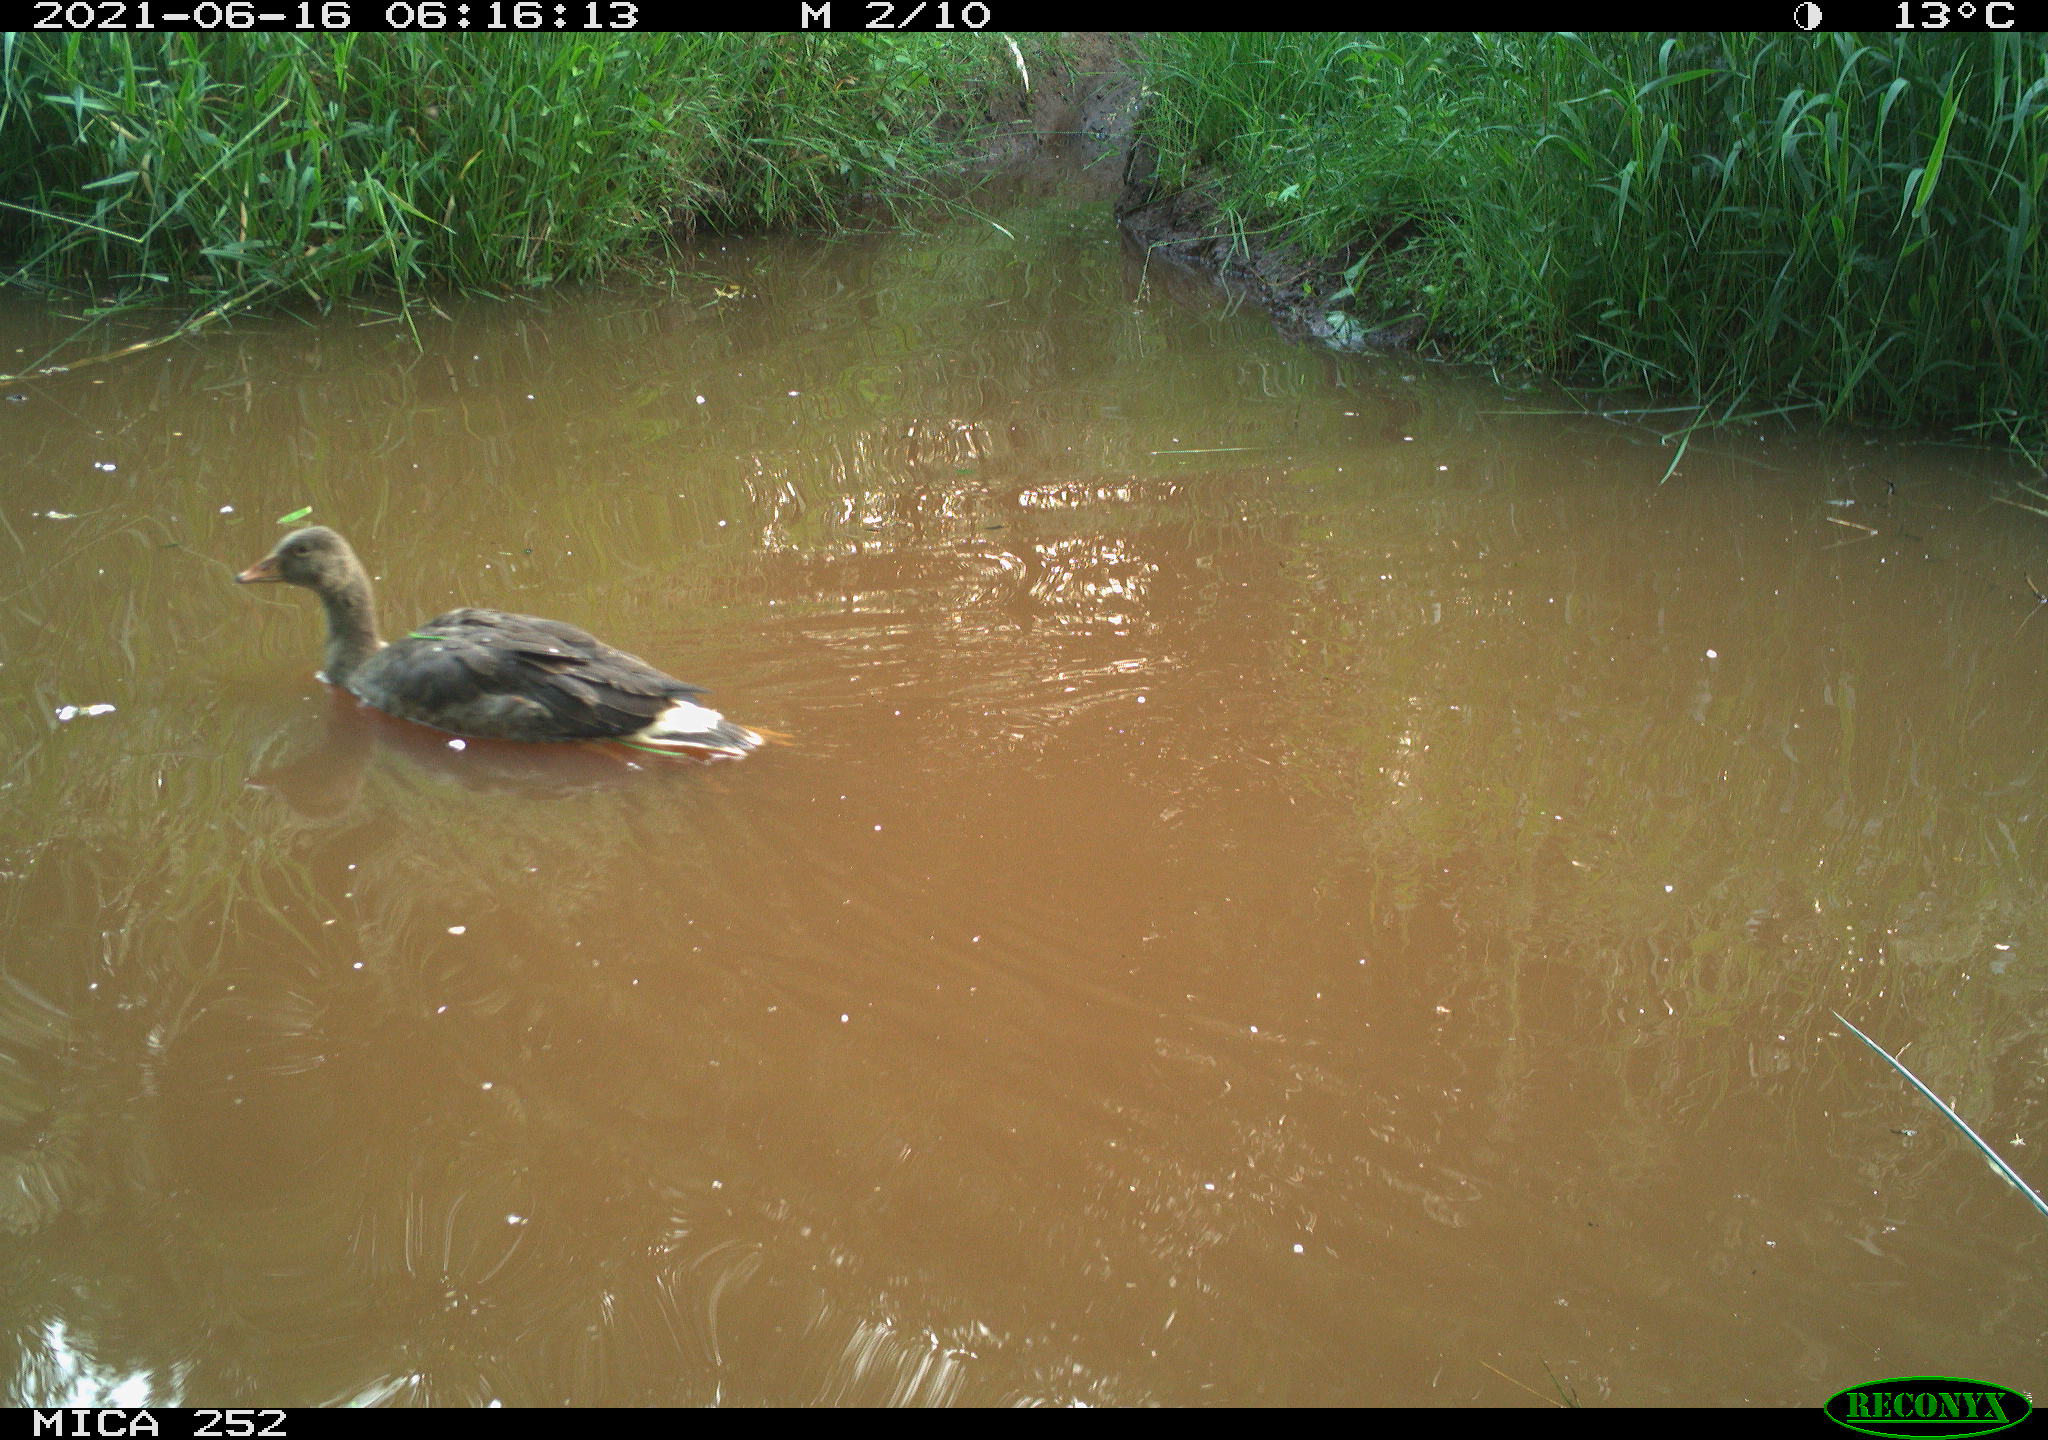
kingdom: Animalia
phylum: Chordata
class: Aves
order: Anseriformes
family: Anatidae
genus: Anas
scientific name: Anas
